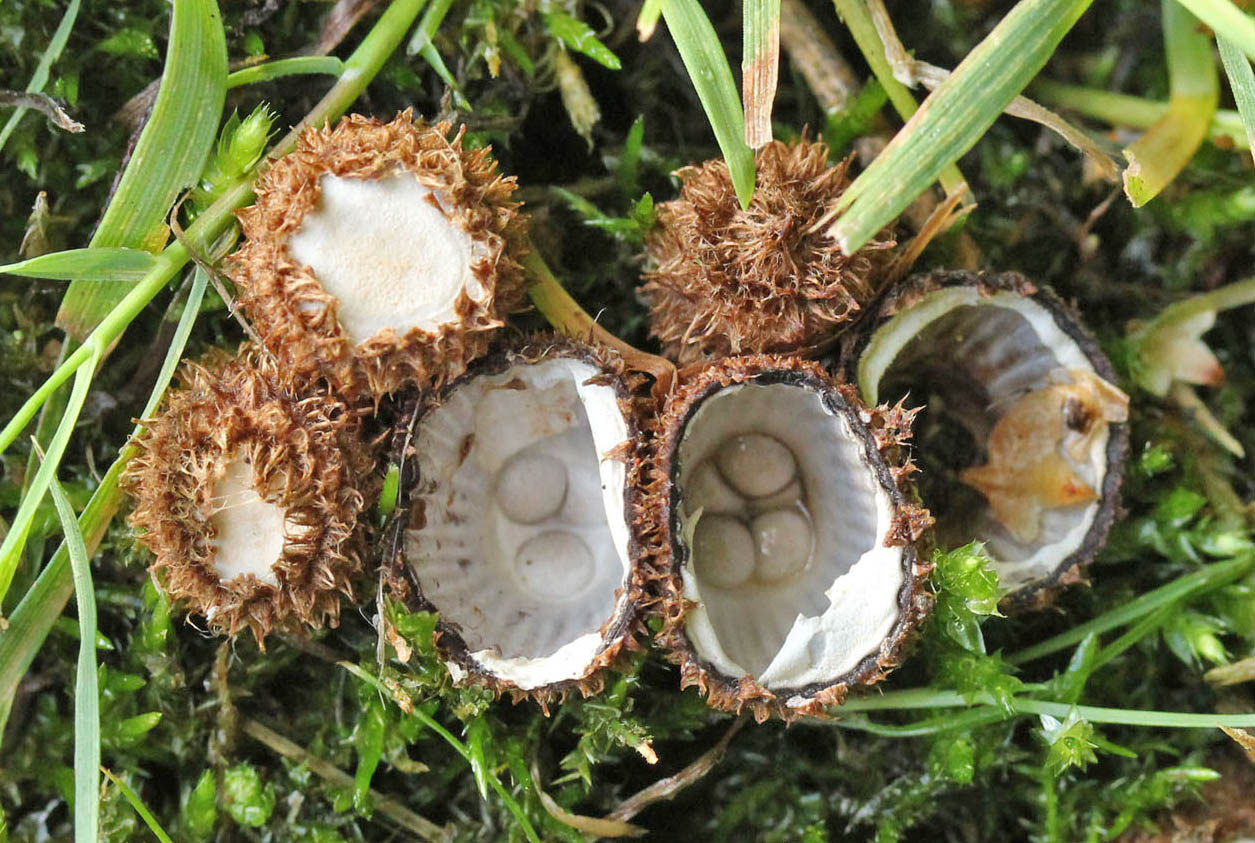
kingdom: Fungi
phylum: Basidiomycota
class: Agaricomycetes
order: Agaricales
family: Agaricaceae
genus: Cyathus
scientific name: Cyathus striatus
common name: stribet redesvamp
